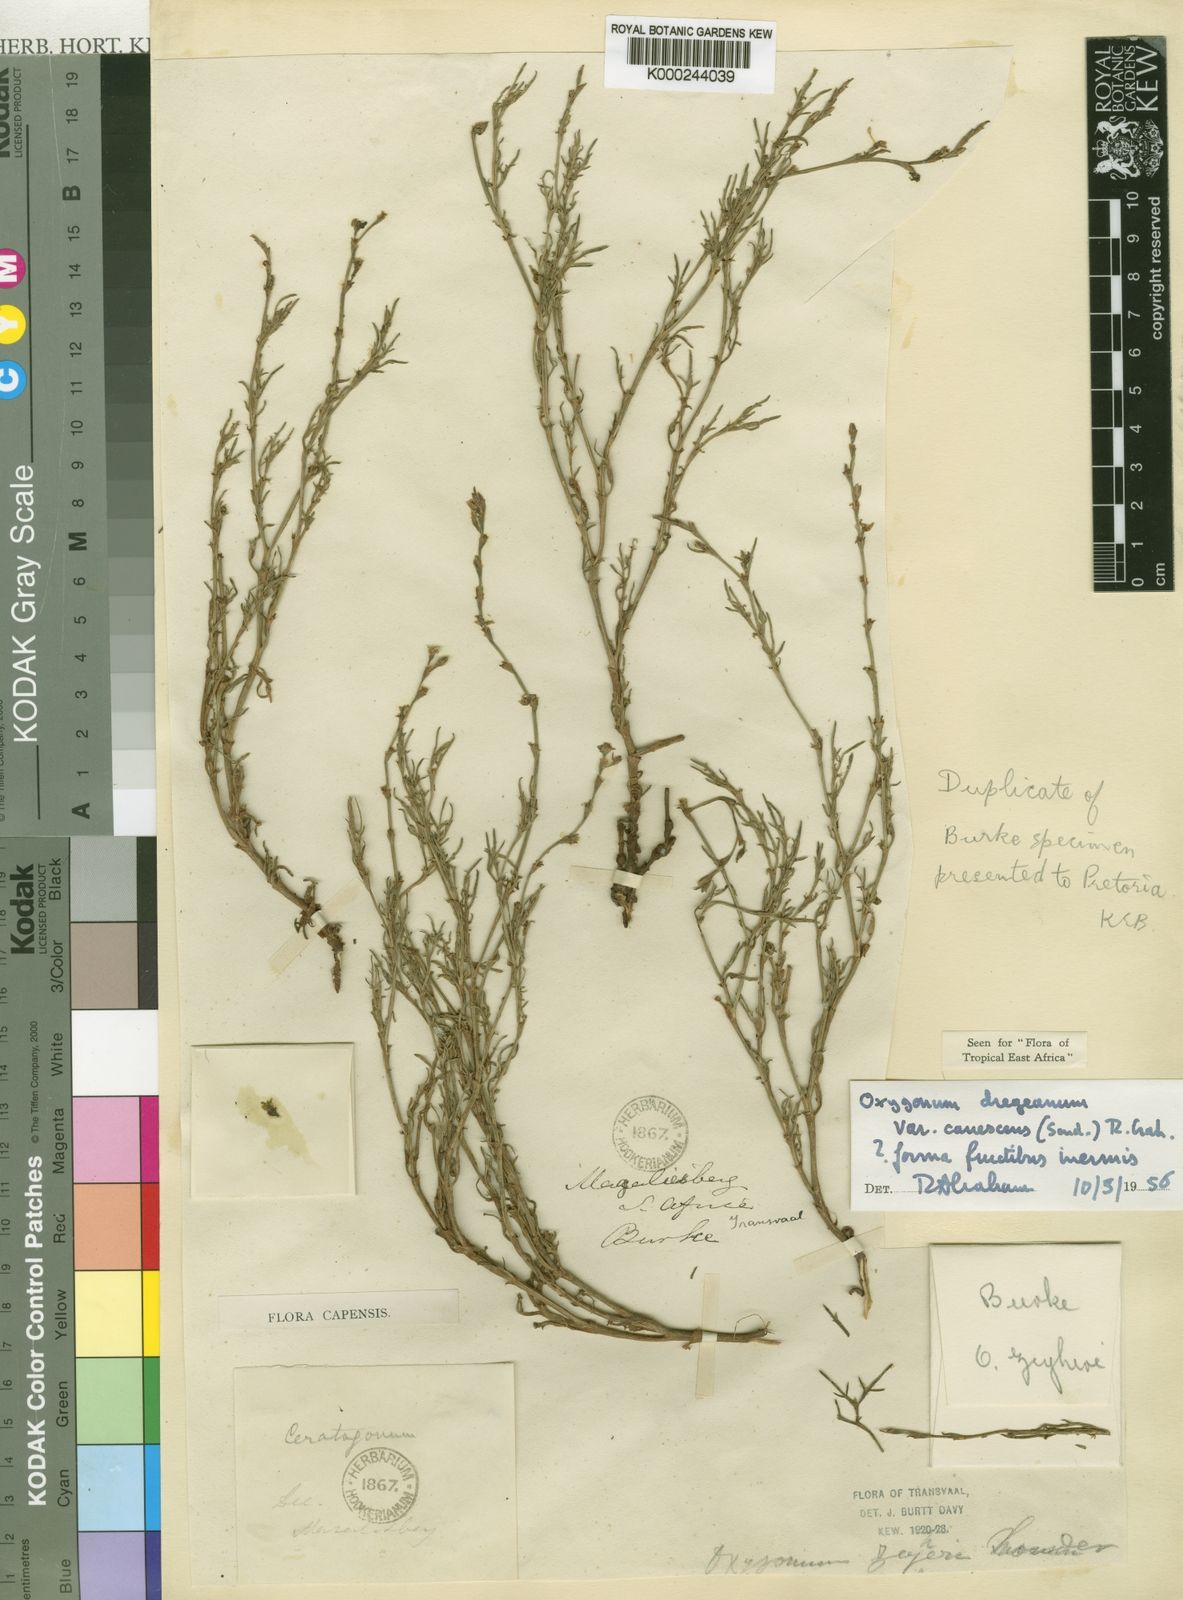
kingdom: Plantae
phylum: Tracheophyta
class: Magnoliopsida
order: Caryophyllales
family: Polygonaceae
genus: Oxygonum
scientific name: Oxygonum dregeanum
